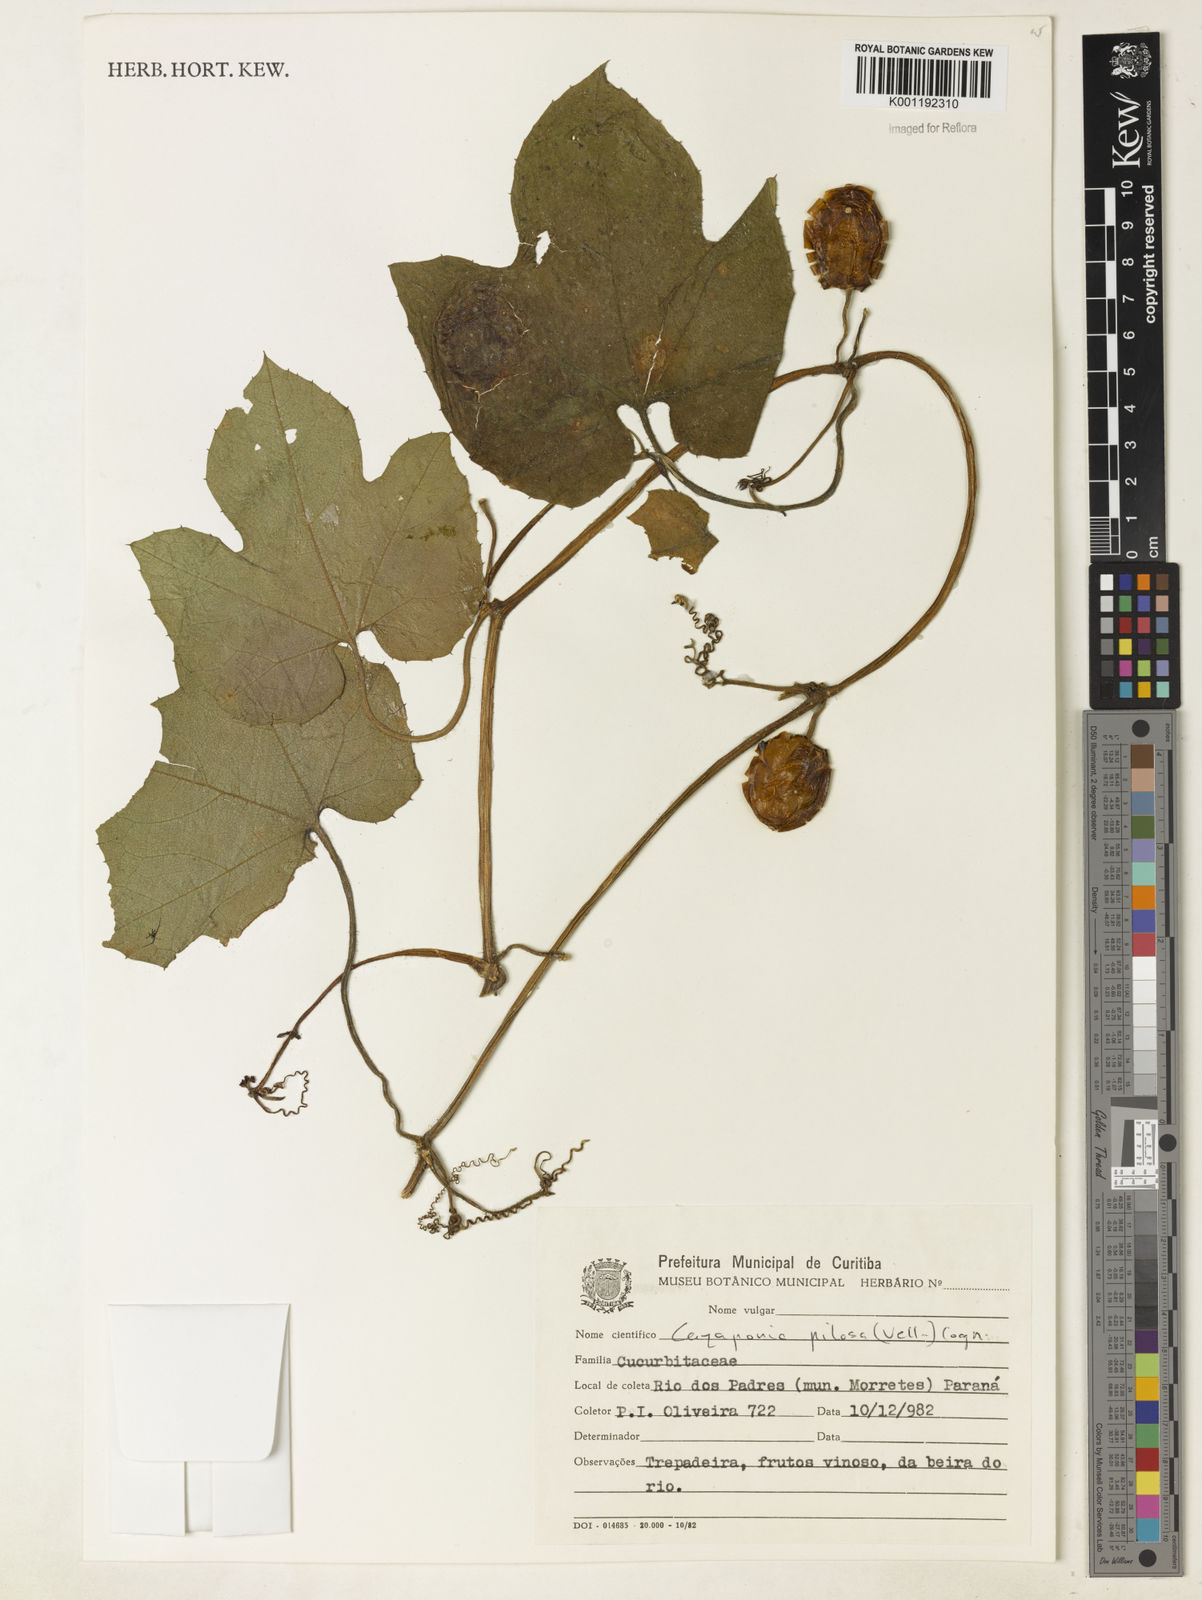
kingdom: Plantae
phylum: Tracheophyta
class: Magnoliopsida
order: Cucurbitales
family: Cucurbitaceae
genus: Cayaponia
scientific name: Cayaponia pilosa
